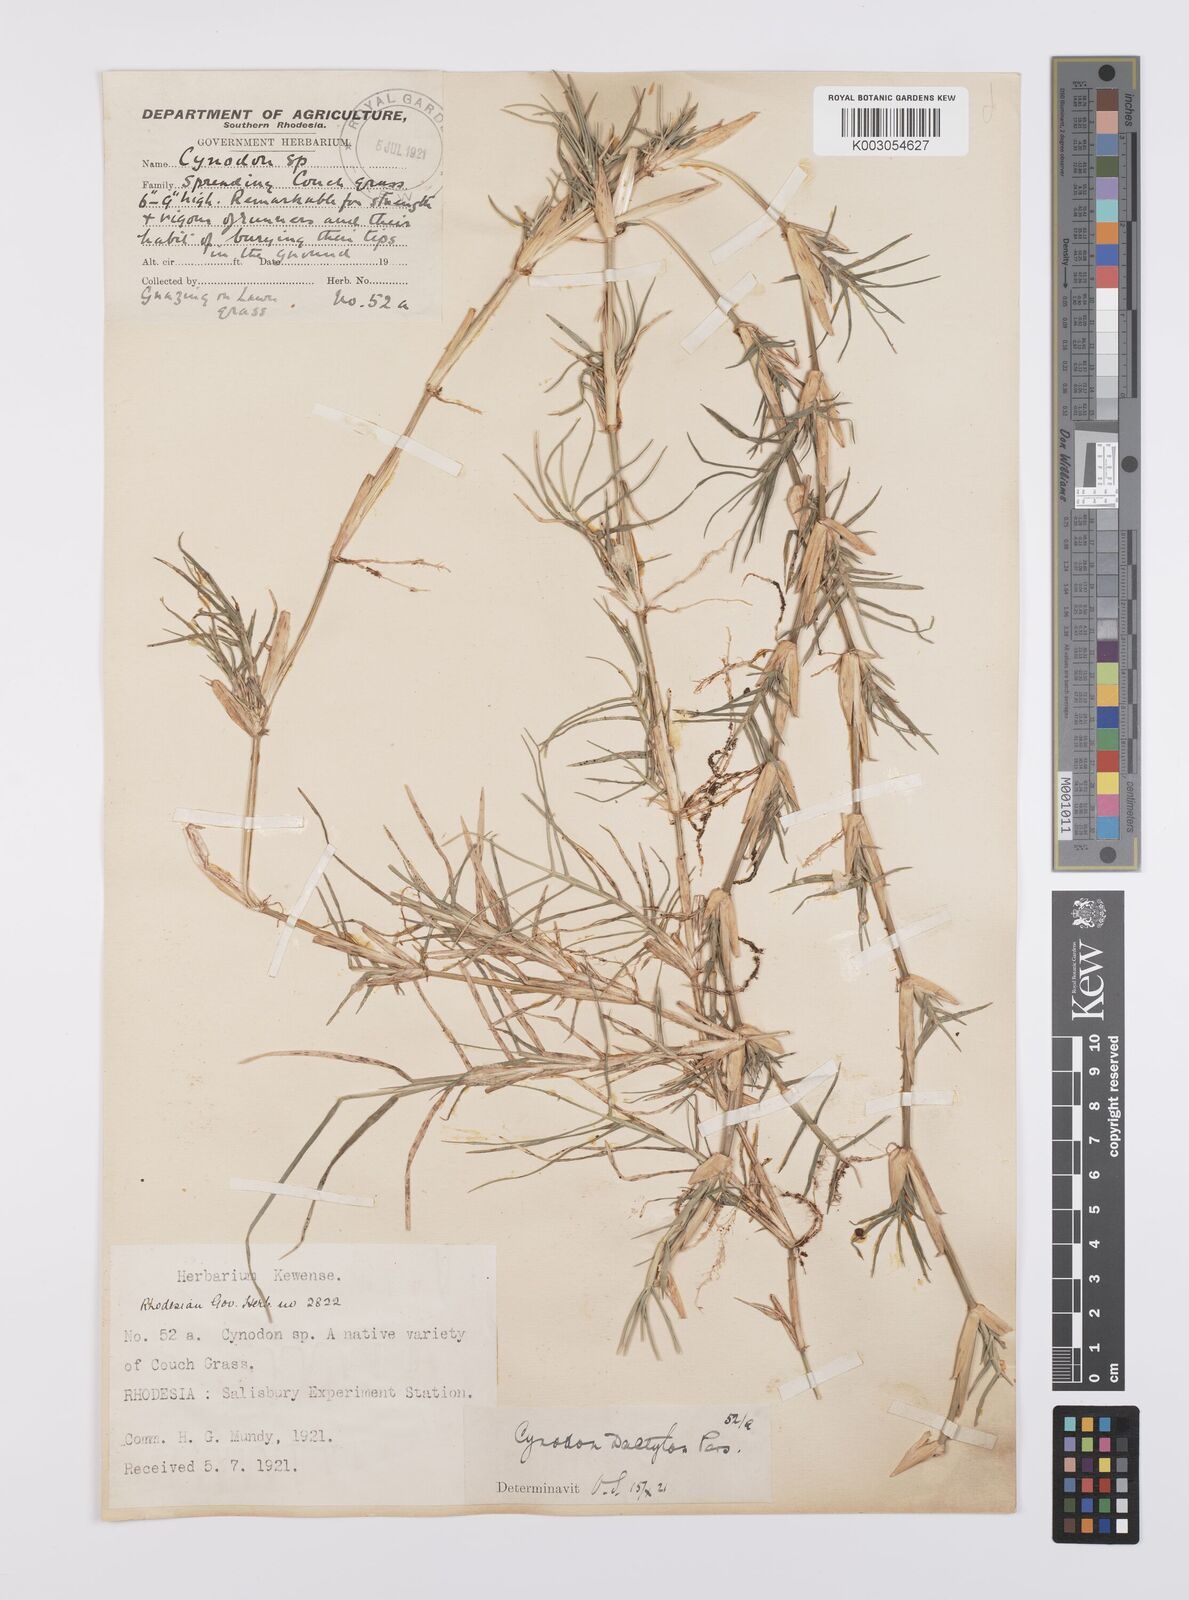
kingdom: Plantae
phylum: Tracheophyta
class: Liliopsida
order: Poales
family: Poaceae
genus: Cynodon
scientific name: Cynodon dactylon
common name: Bermuda grass
